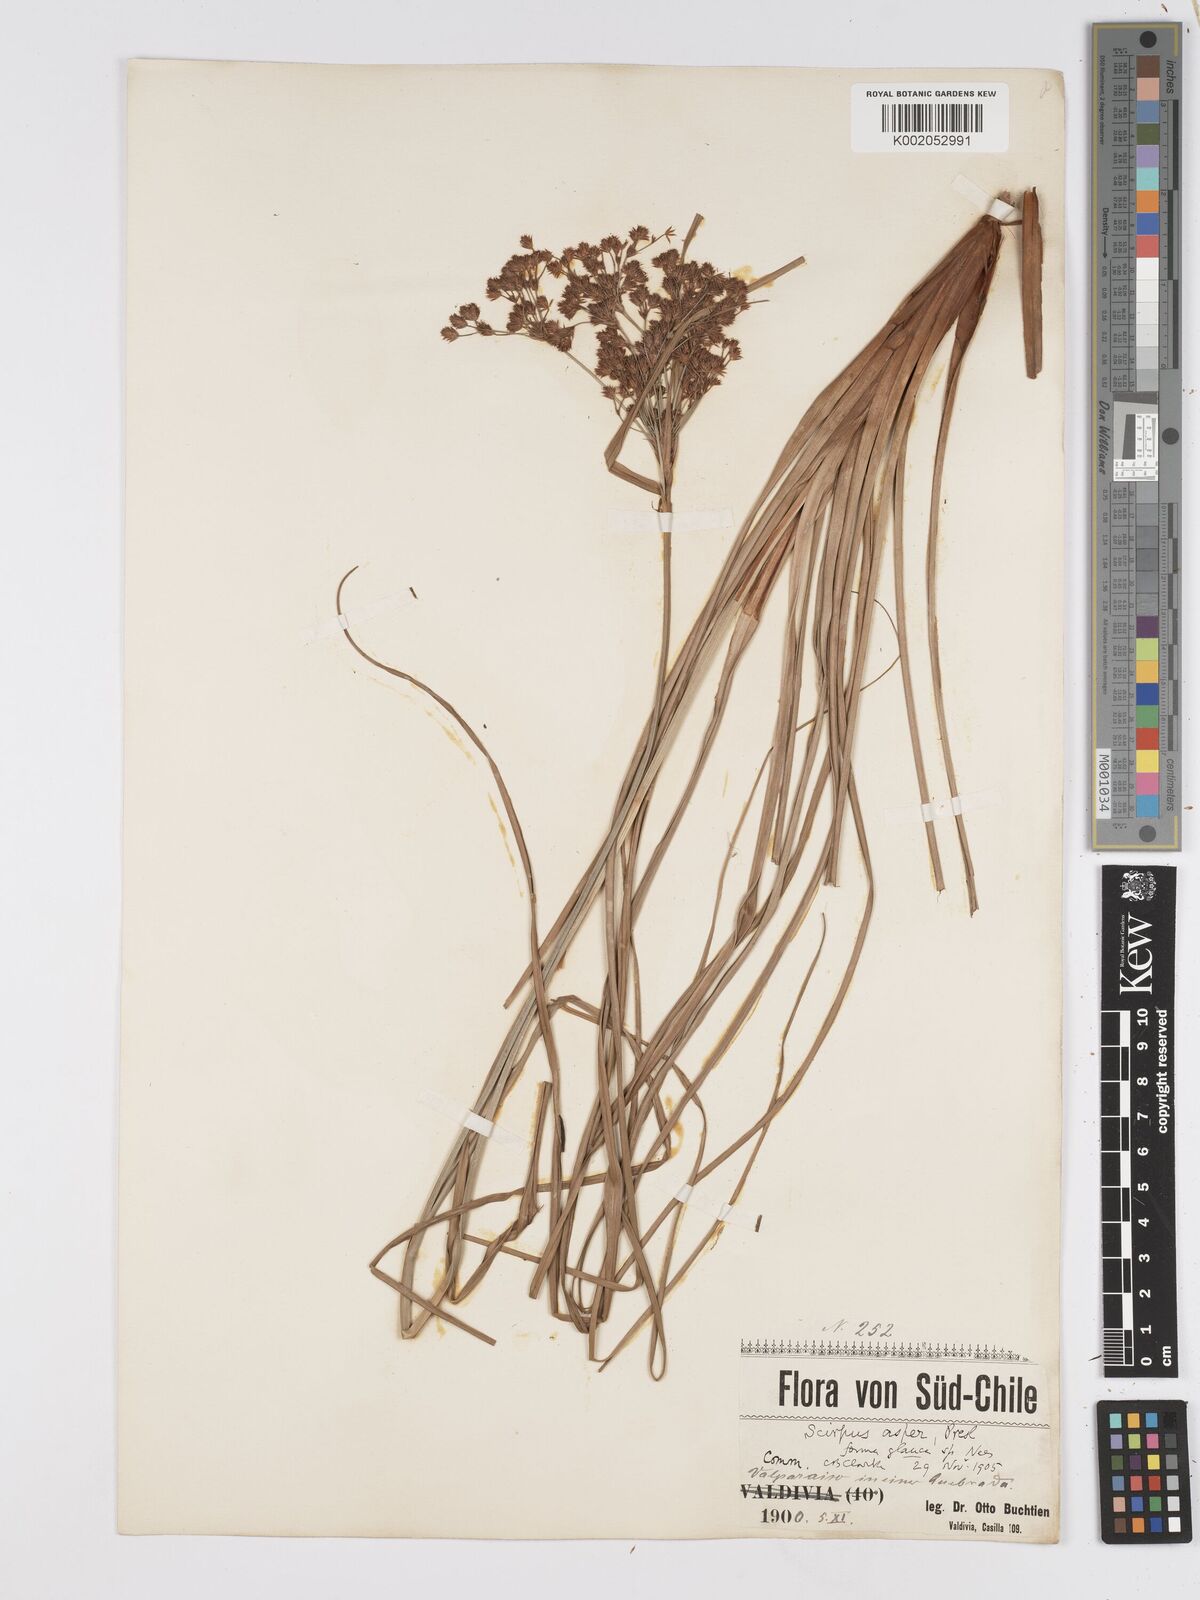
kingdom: Plantae
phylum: Tracheophyta
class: Liliopsida
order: Poales
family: Cyperaceae
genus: Rhodoscirpus
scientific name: Rhodoscirpus asper
